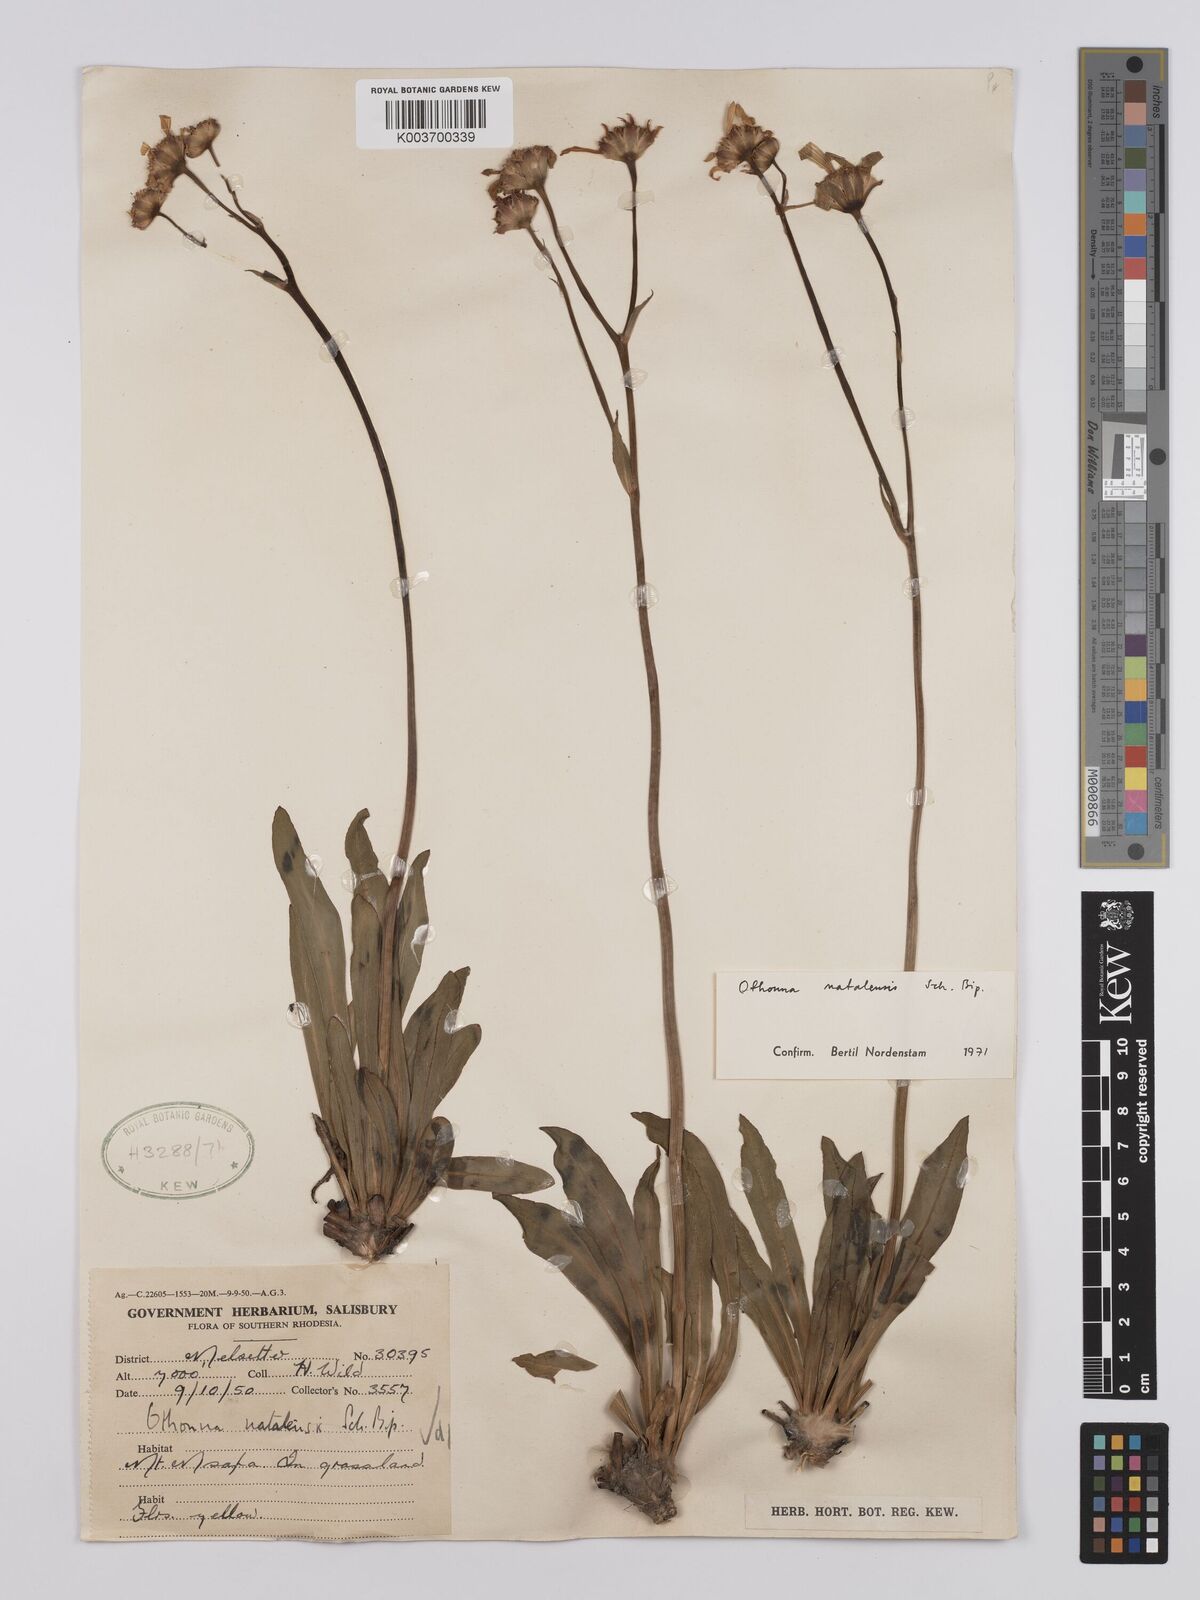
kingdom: Plantae
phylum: Tracheophyta
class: Magnoliopsida
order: Asterales
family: Asteraceae
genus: Othonna
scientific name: Othonna natalensis
